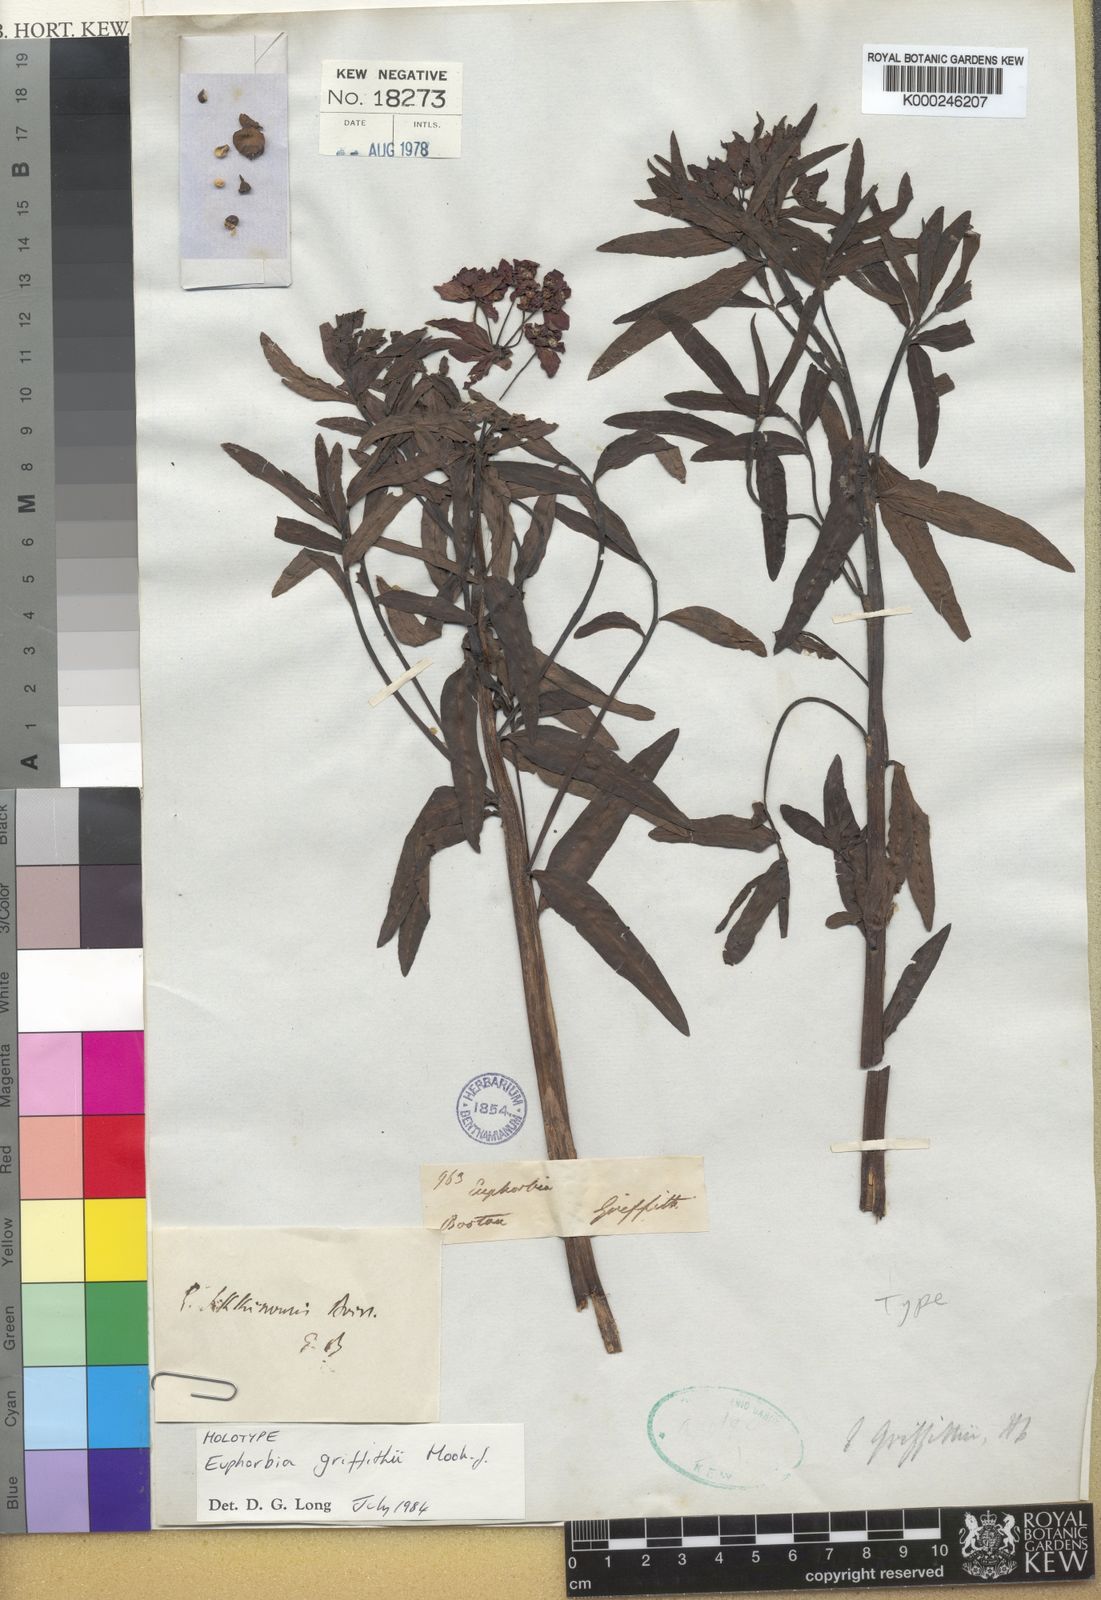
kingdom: Plantae
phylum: Tracheophyta
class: Magnoliopsida
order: Malpighiales
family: Euphorbiaceae
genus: Euphorbia
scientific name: Euphorbia griffithii
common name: Griffith's spurge
